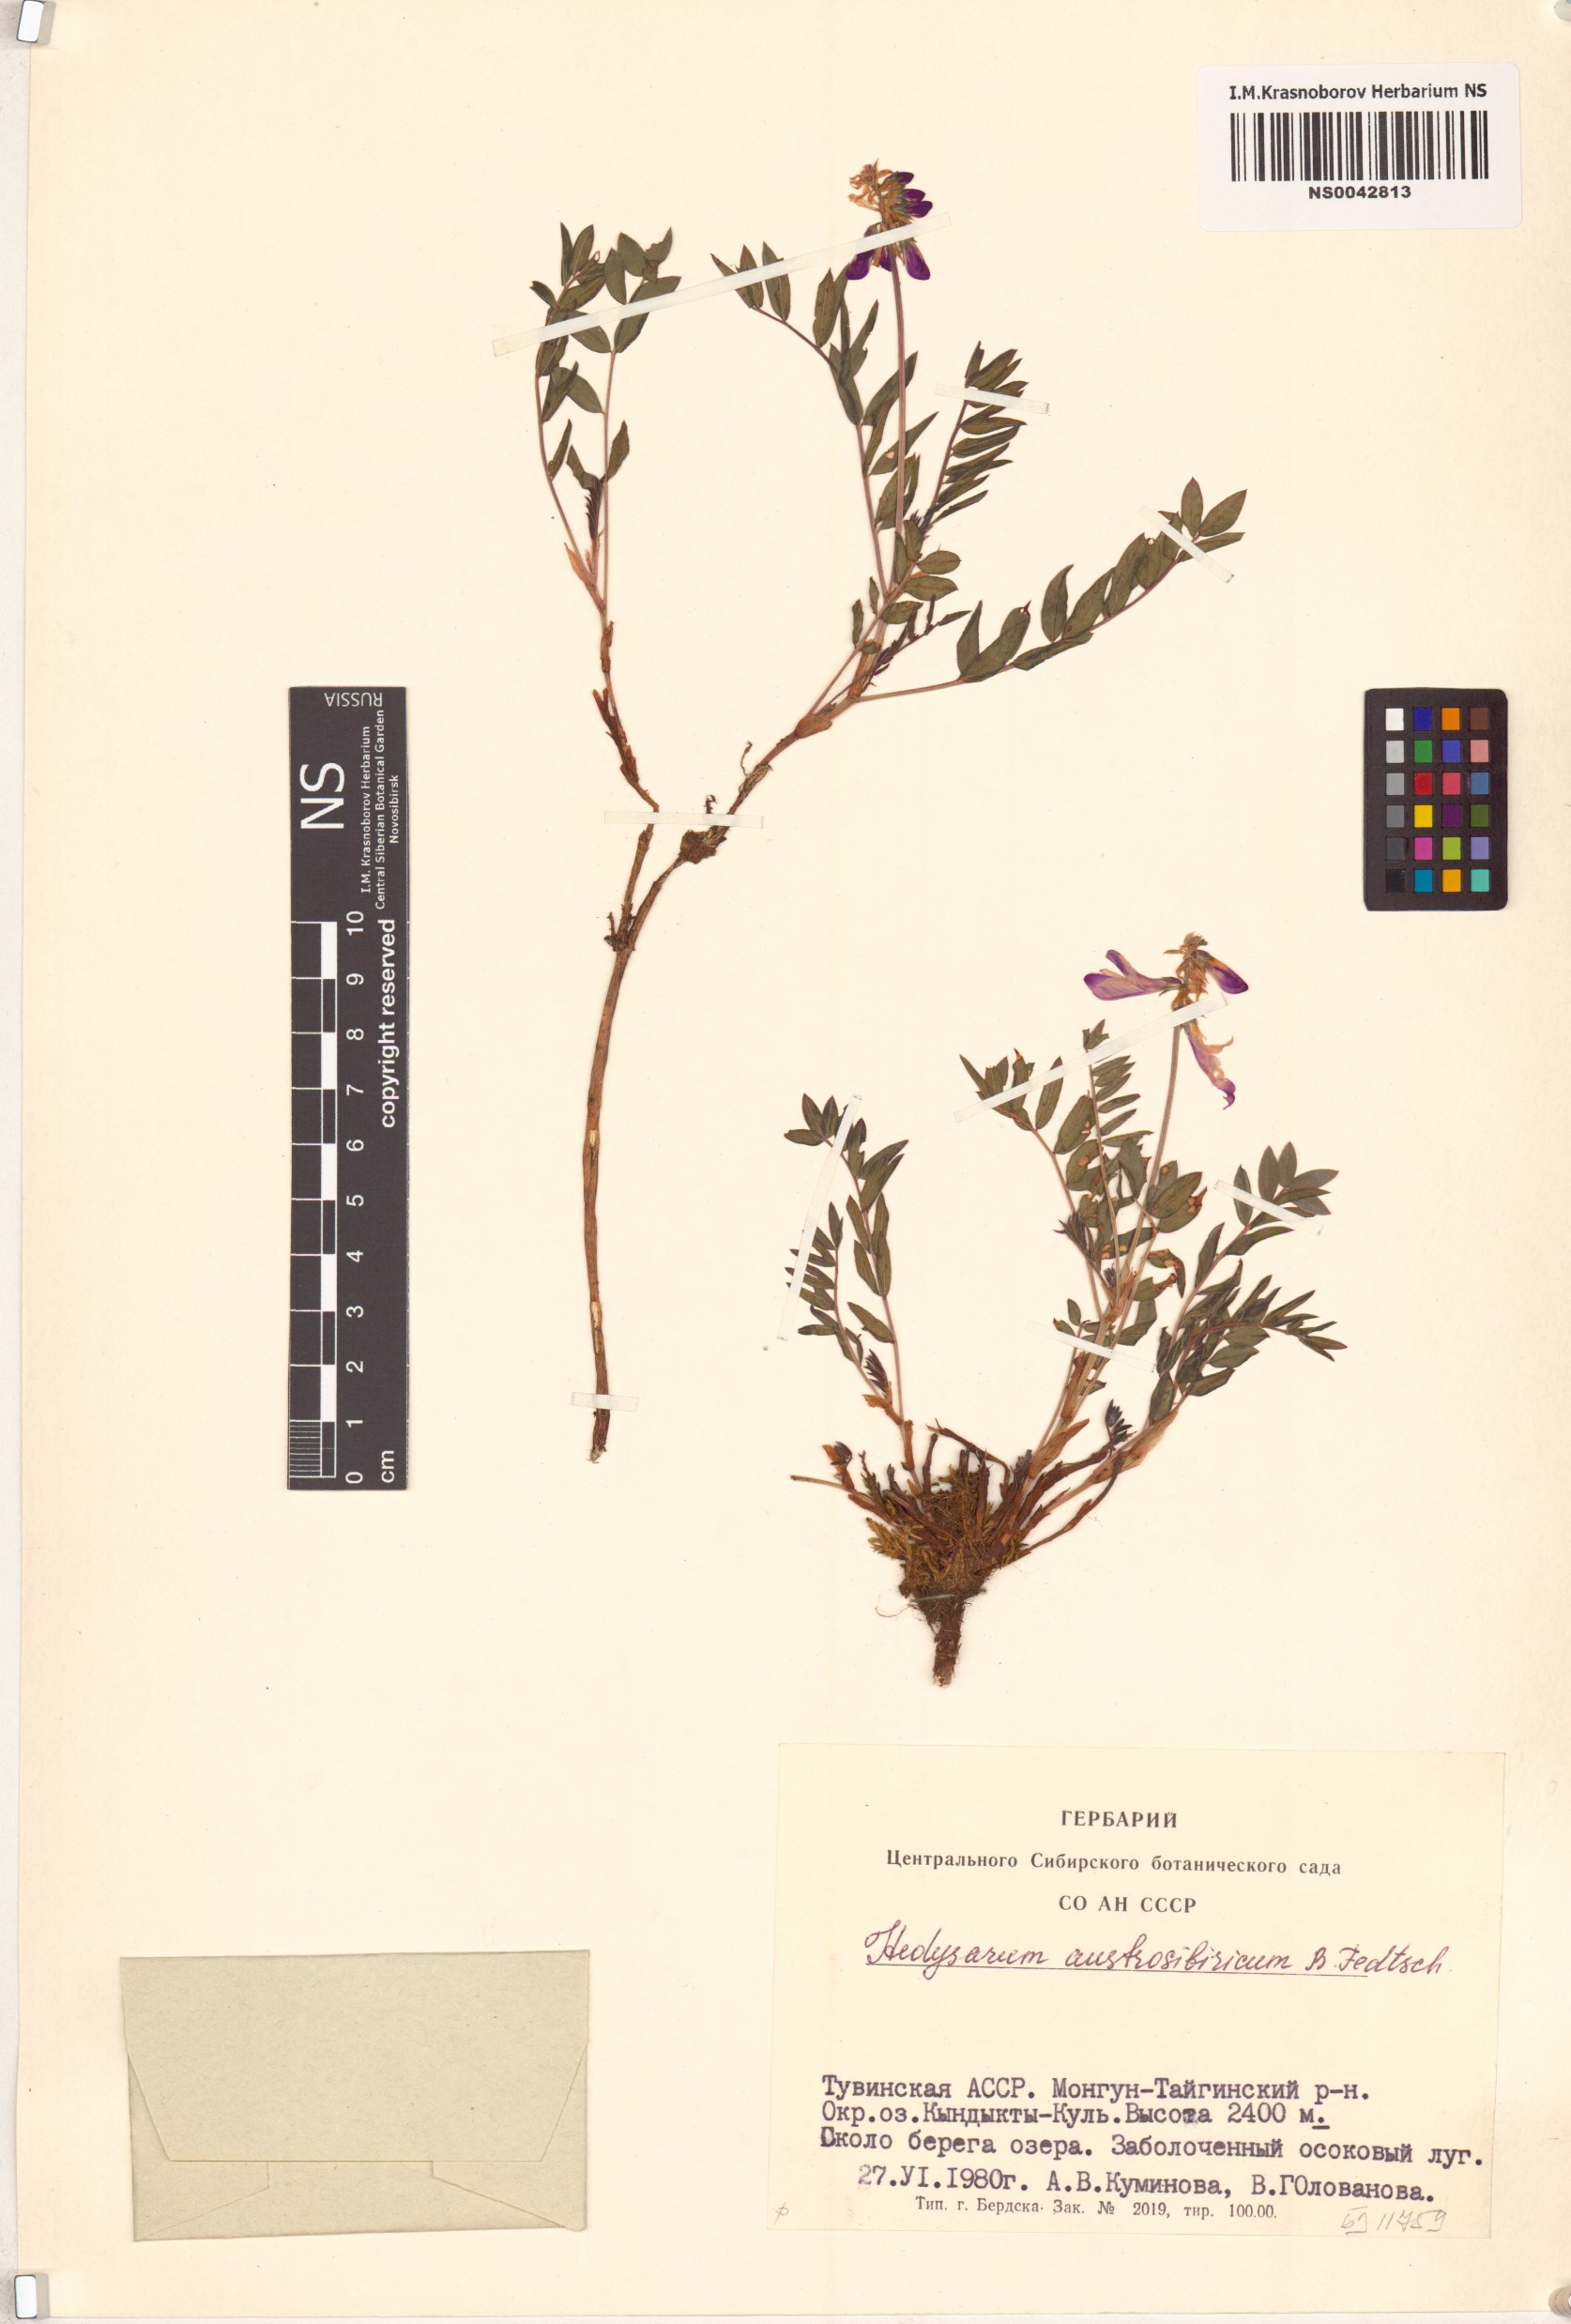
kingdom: Plantae
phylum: Tracheophyta
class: Magnoliopsida
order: Fabales
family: Fabaceae
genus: Hedysarum
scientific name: Hedysarum neglectum
